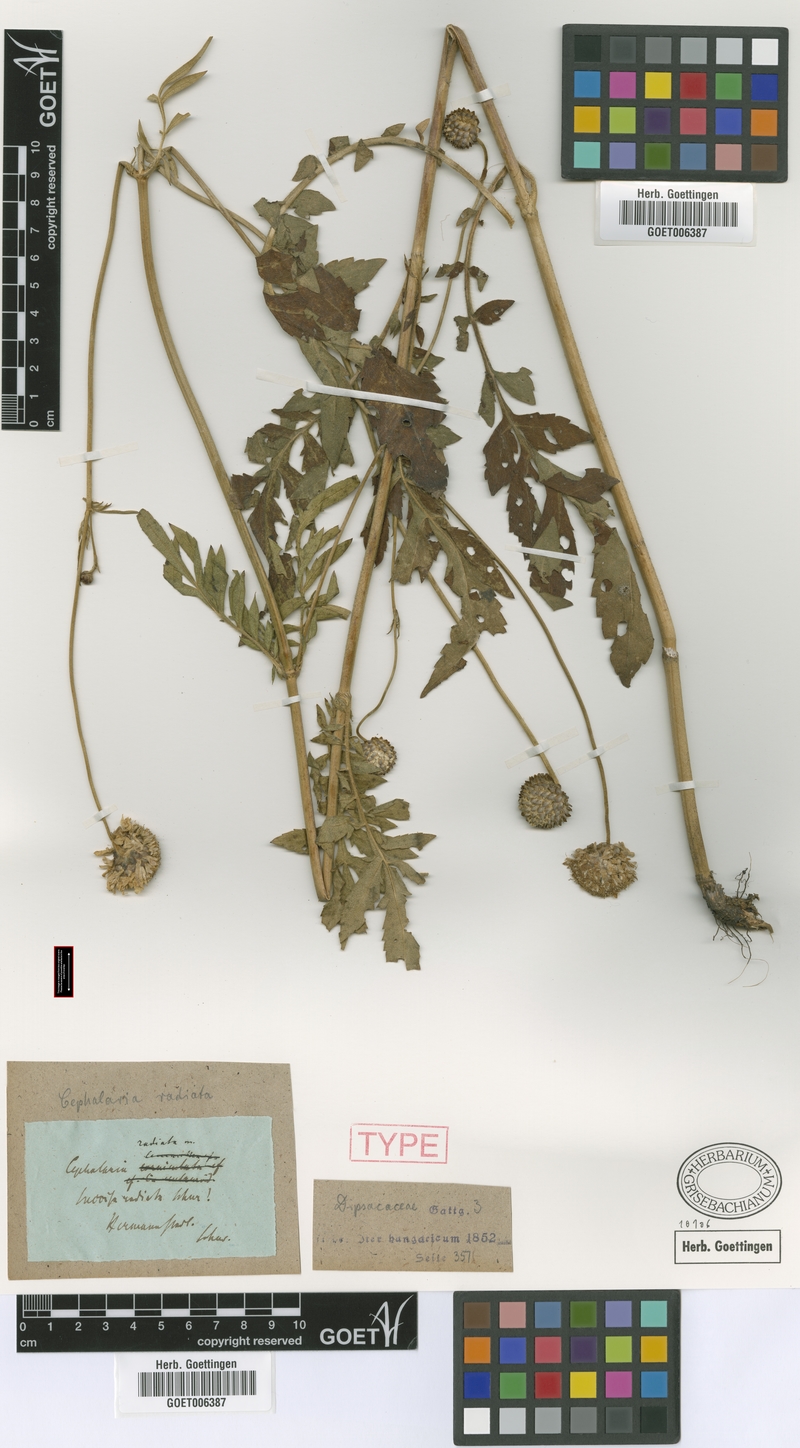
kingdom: Plantae
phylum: Tracheophyta
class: Magnoliopsida
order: Dipsacales
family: Caprifoliaceae
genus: Cephalaria
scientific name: Cephalaria radiata
